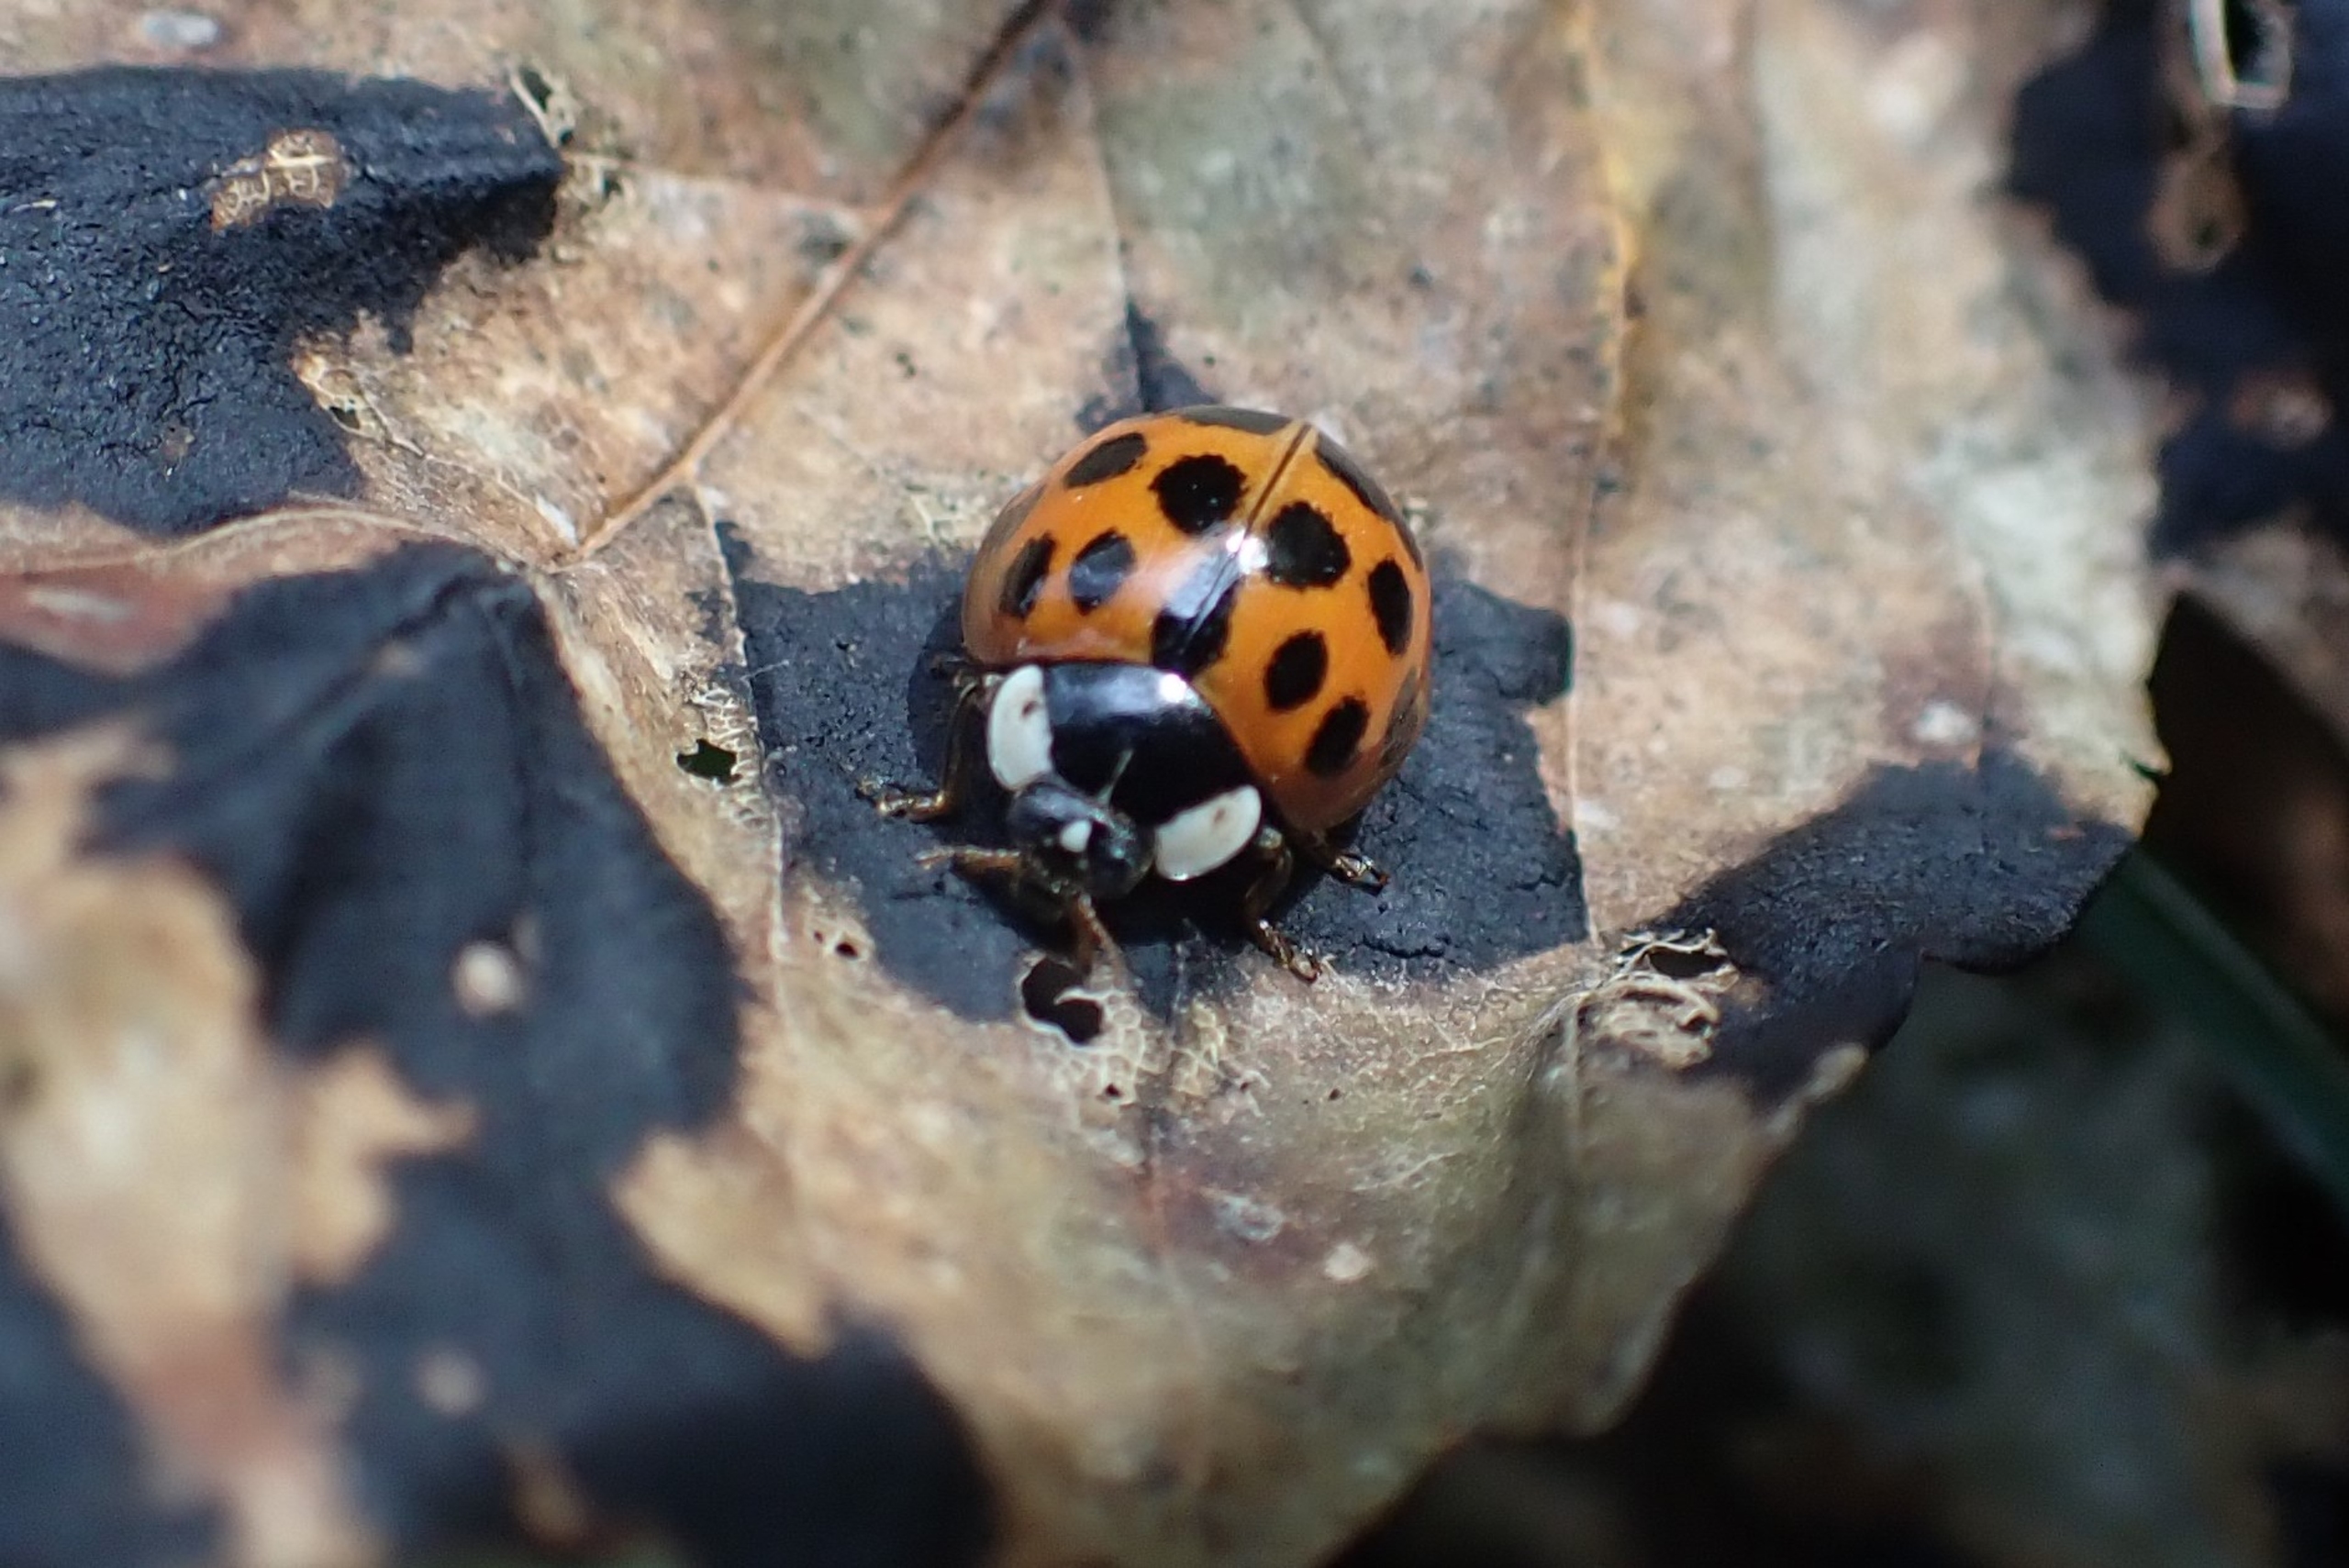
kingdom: Animalia
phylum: Arthropoda
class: Insecta
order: Coleoptera
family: Coccinellidae
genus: Harmonia
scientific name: Harmonia axyridis
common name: Harlekinmariehøne
